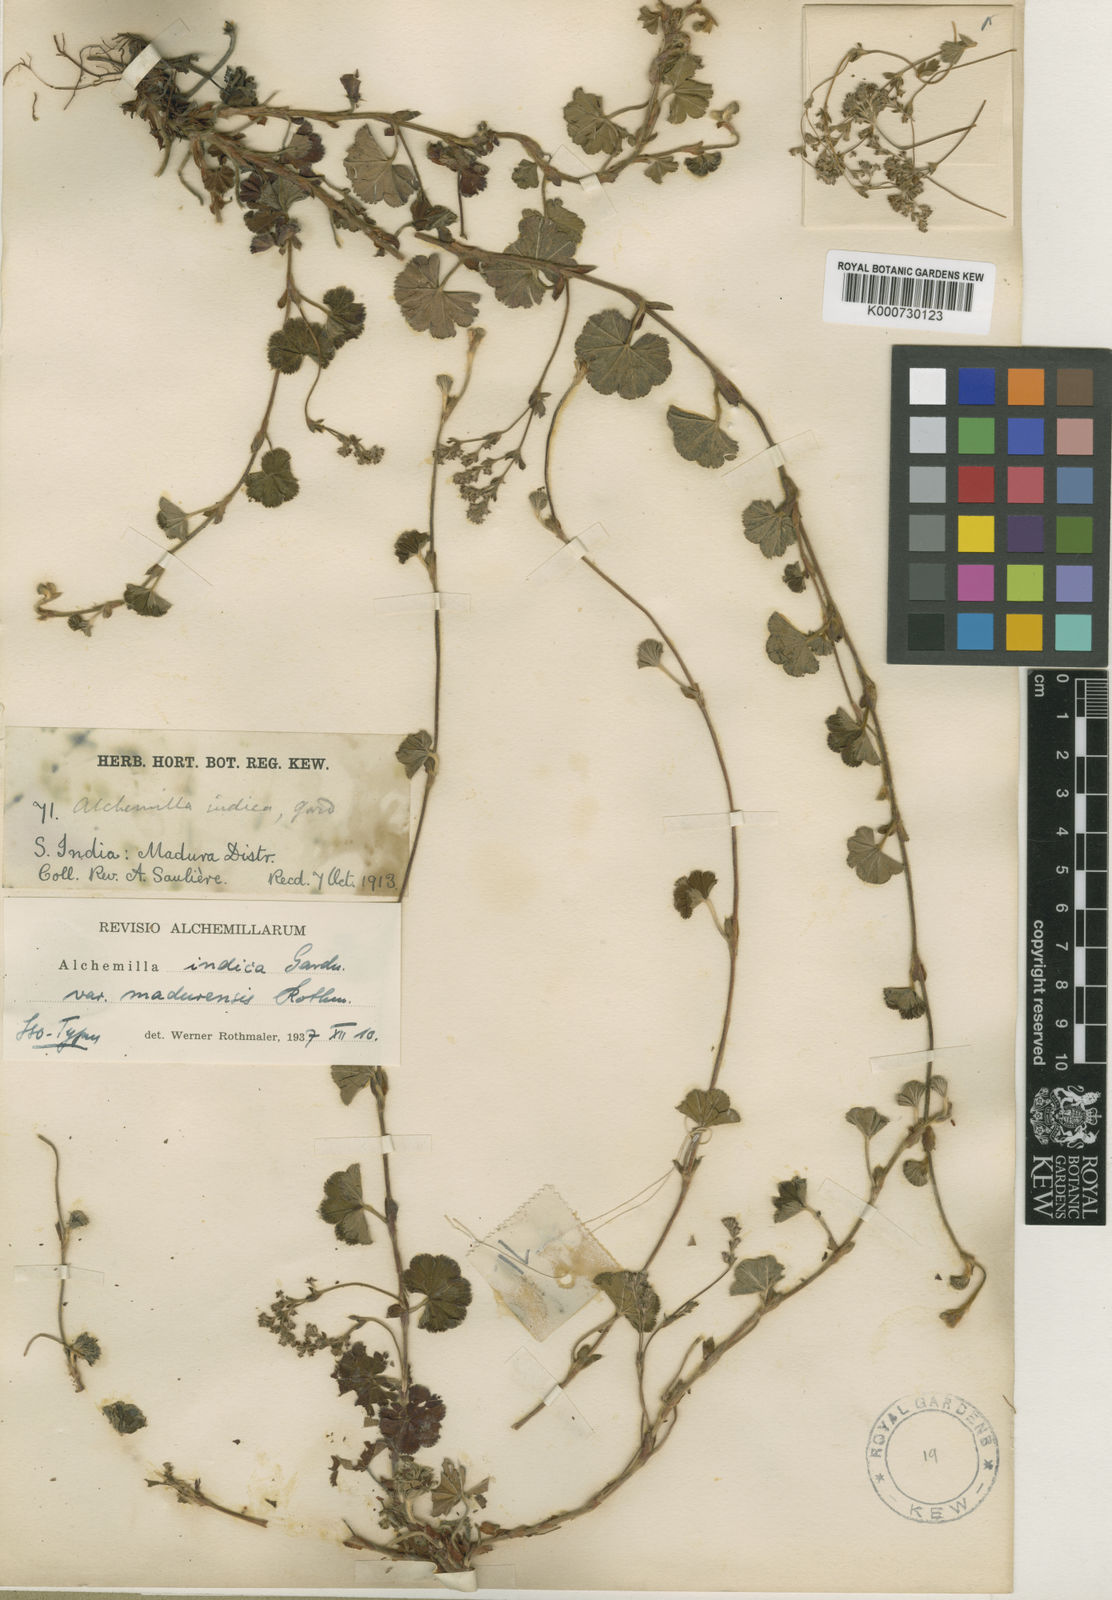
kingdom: Plantae
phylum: Tracheophyta
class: Magnoliopsida
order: Rosales
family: Rosaceae
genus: Alchemilla
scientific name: Alchemilla indica
